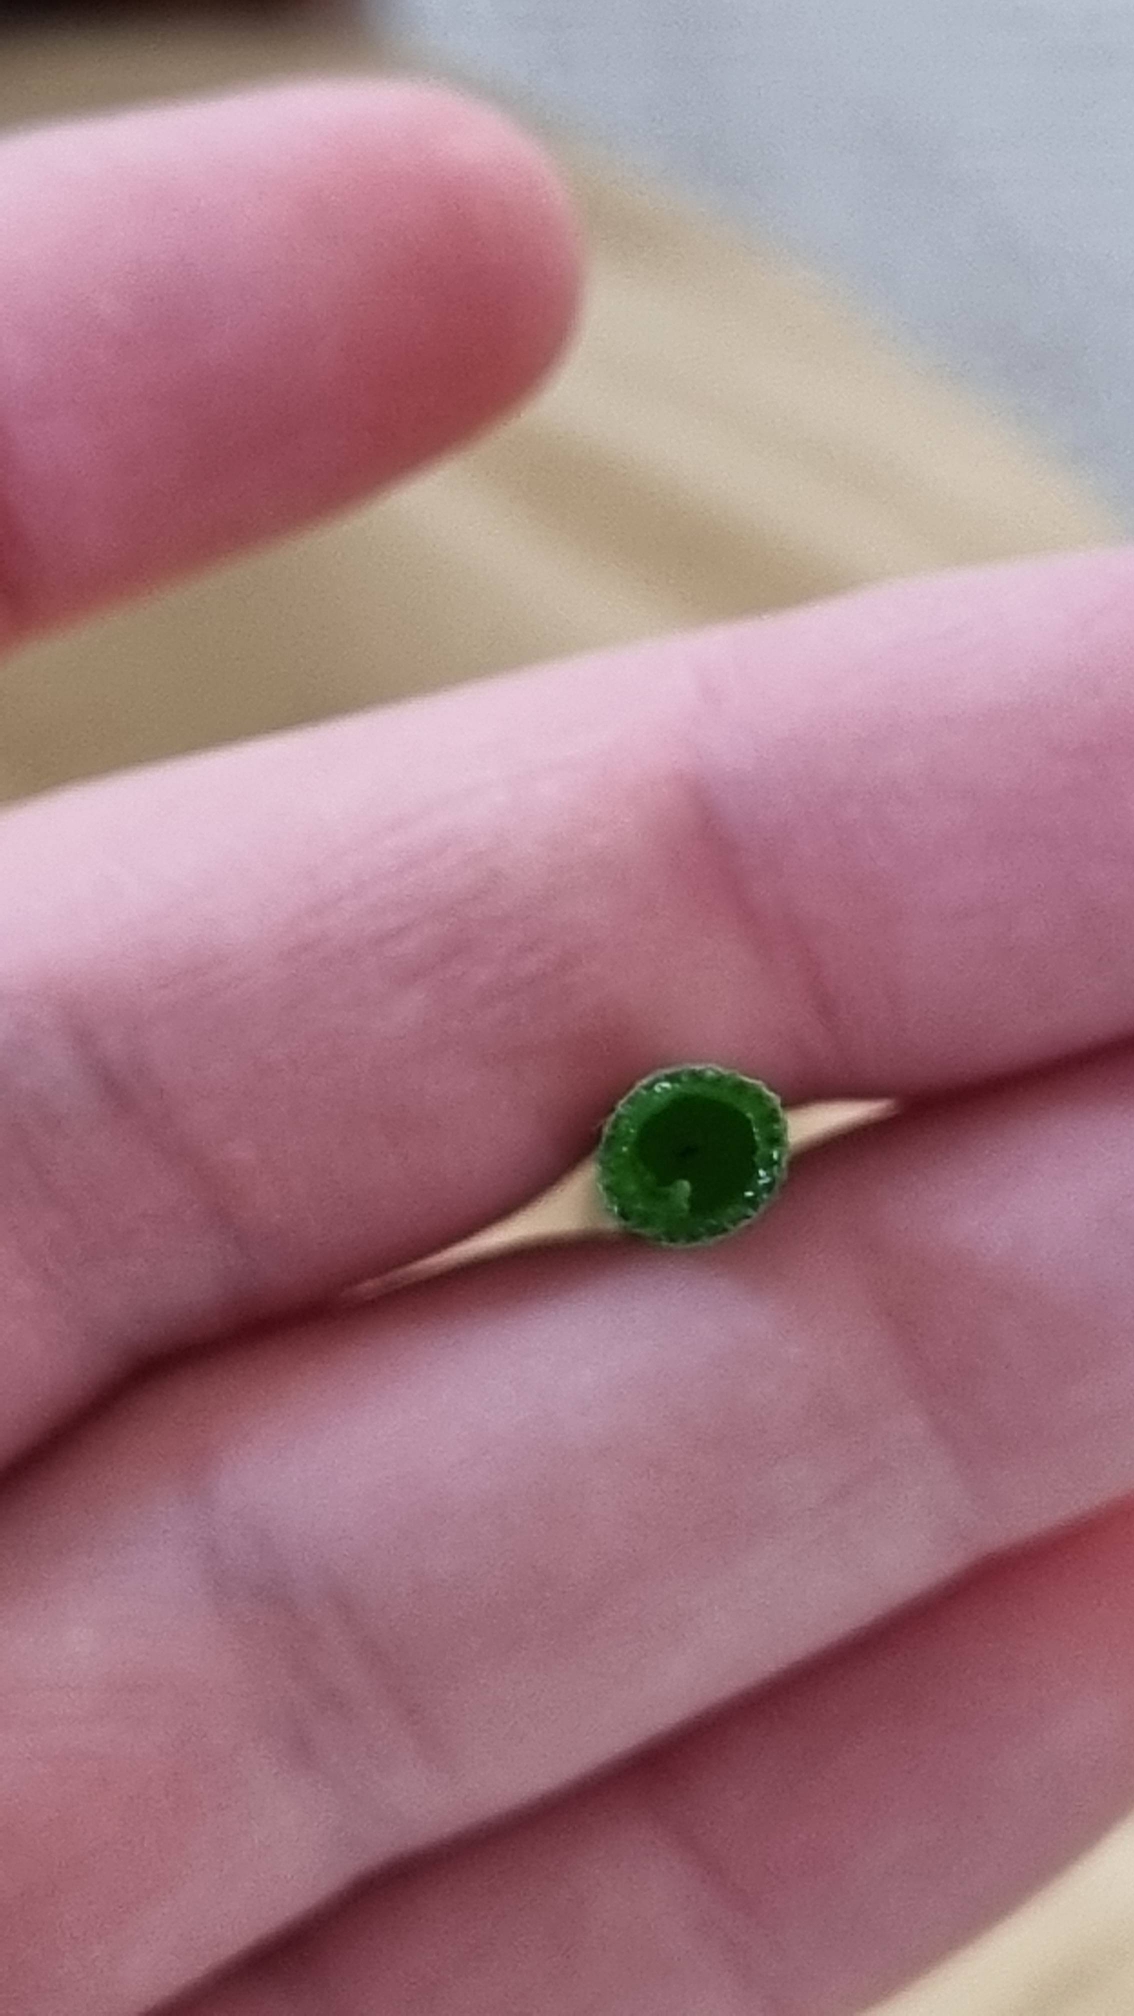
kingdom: Plantae
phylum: Tracheophyta
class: Polypodiopsida
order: Equisetales
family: Equisetaceae
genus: Equisetum
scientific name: Equisetum hyemale
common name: Skavgræs
